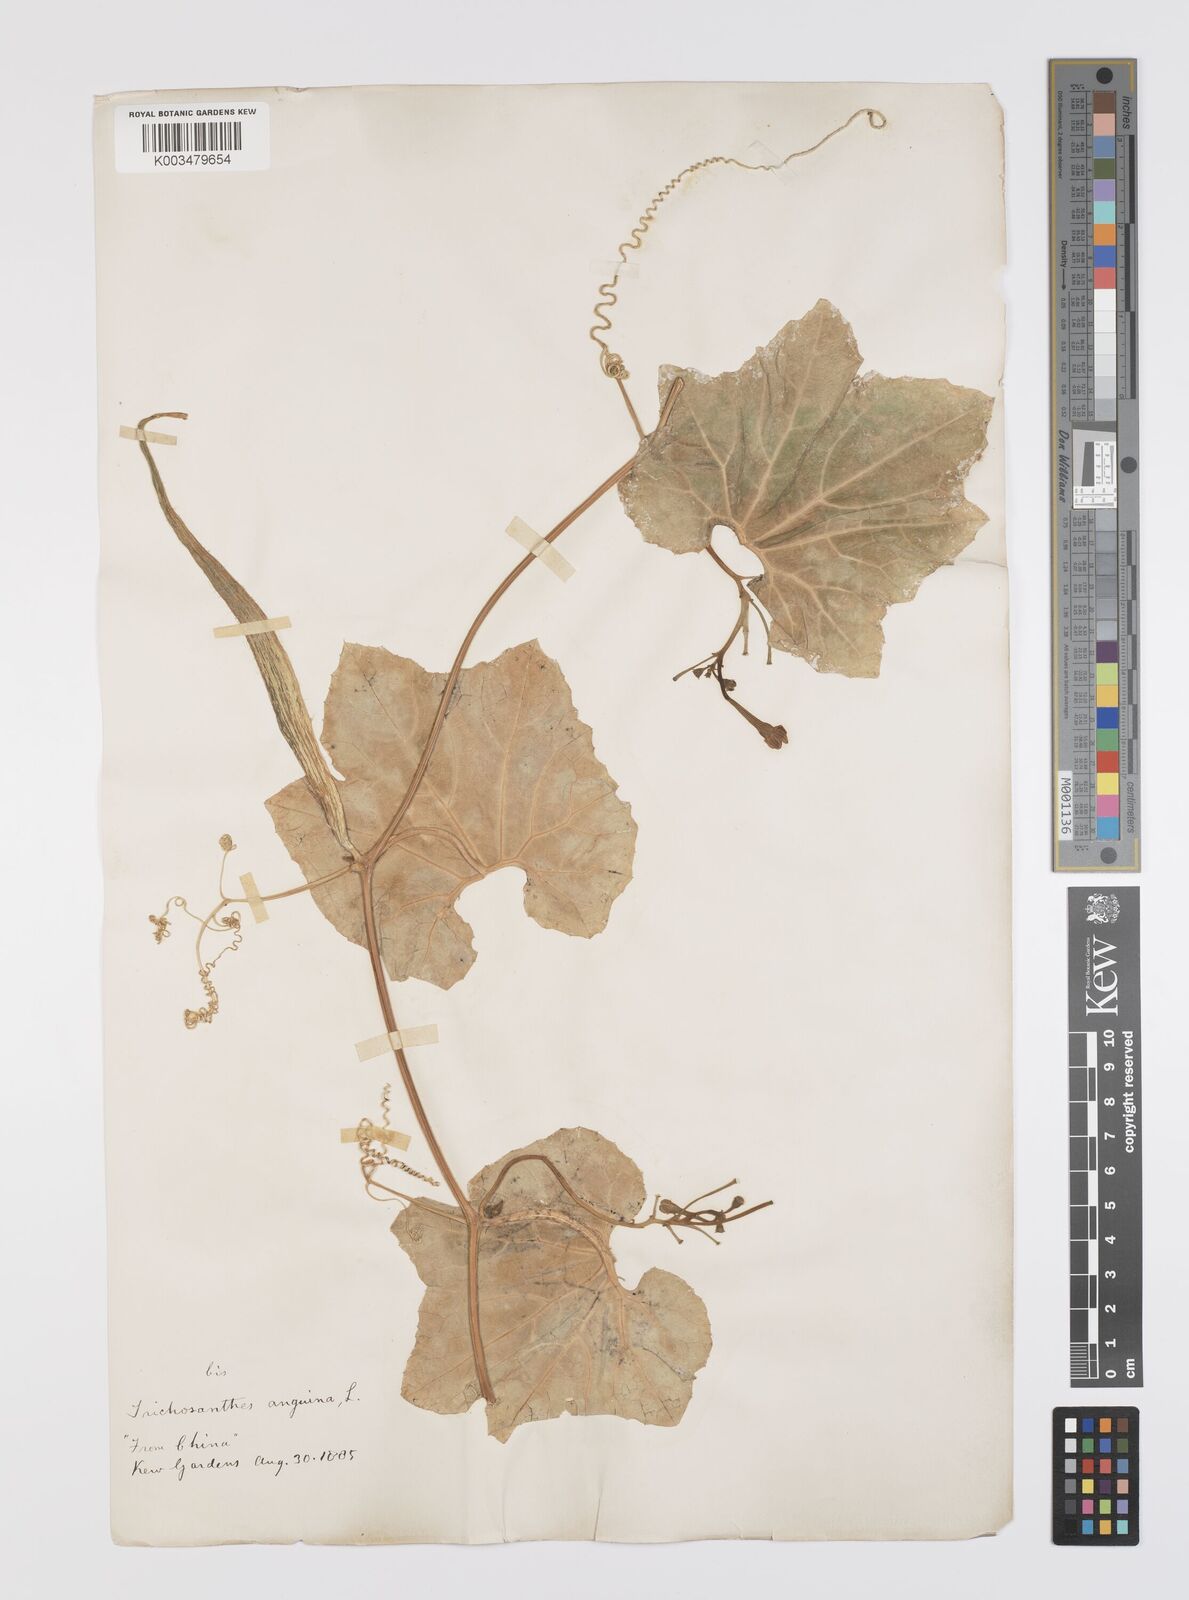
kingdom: Plantae
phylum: Tracheophyta
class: Magnoliopsida
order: Cucurbitales
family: Cucurbitaceae
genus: Trichosanthes
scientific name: Trichosanthes cucumerina
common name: Snakegourd
